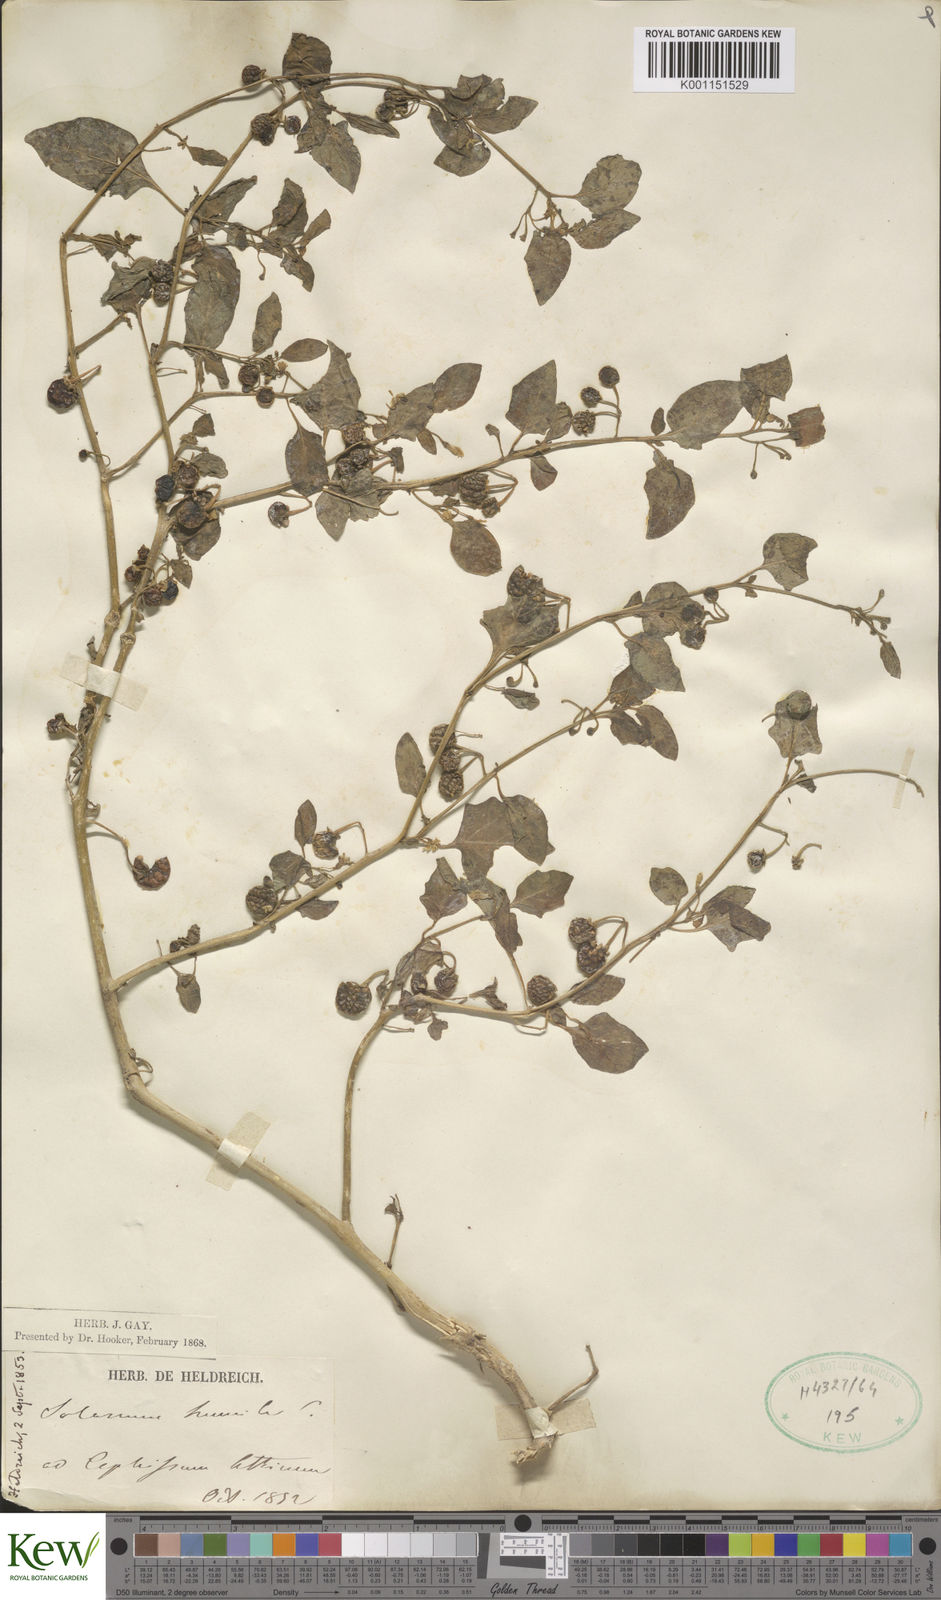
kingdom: Plantae
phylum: Tracheophyta
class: Magnoliopsida
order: Solanales
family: Solanaceae
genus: Solanum
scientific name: Solanum villosum
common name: Red nightshade
